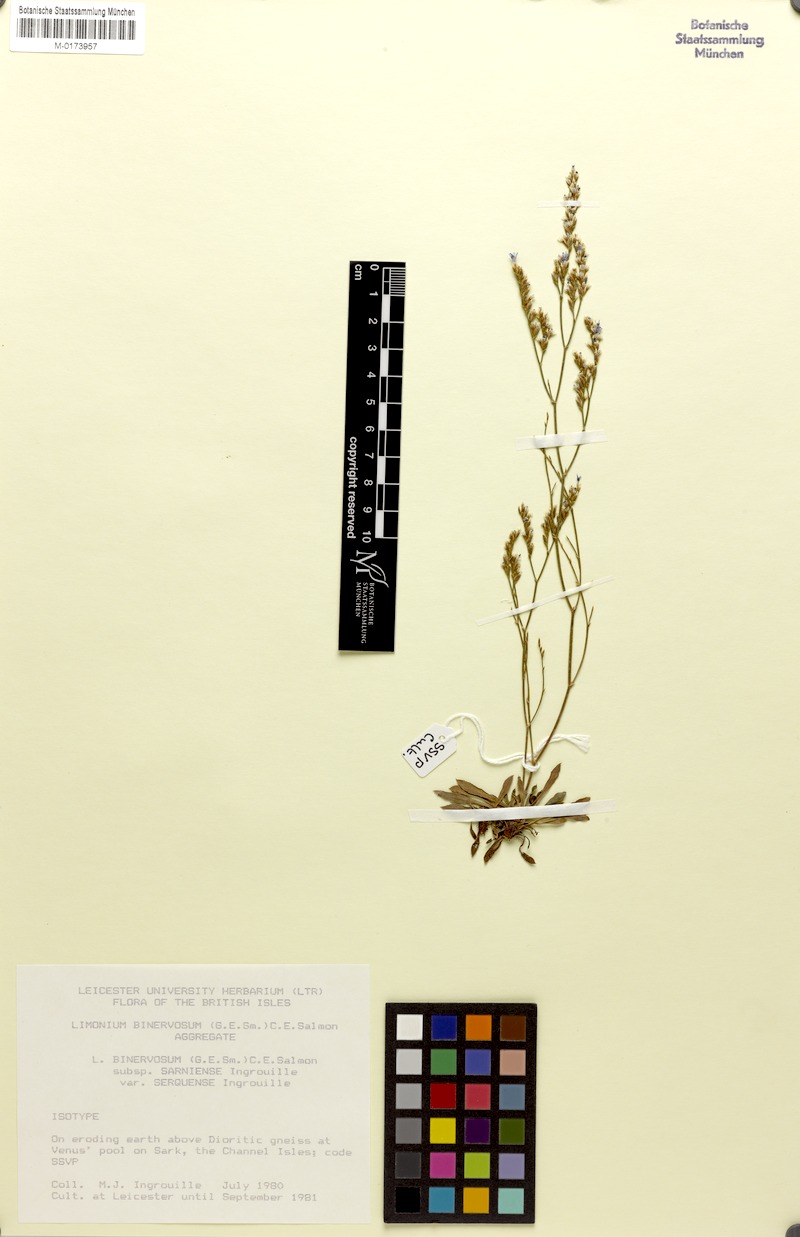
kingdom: Plantae
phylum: Tracheophyta
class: Magnoliopsida
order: Caryophyllales
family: Plumbaginaceae
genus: Limonium
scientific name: Limonium binervosum
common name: Rock sea-lavender
